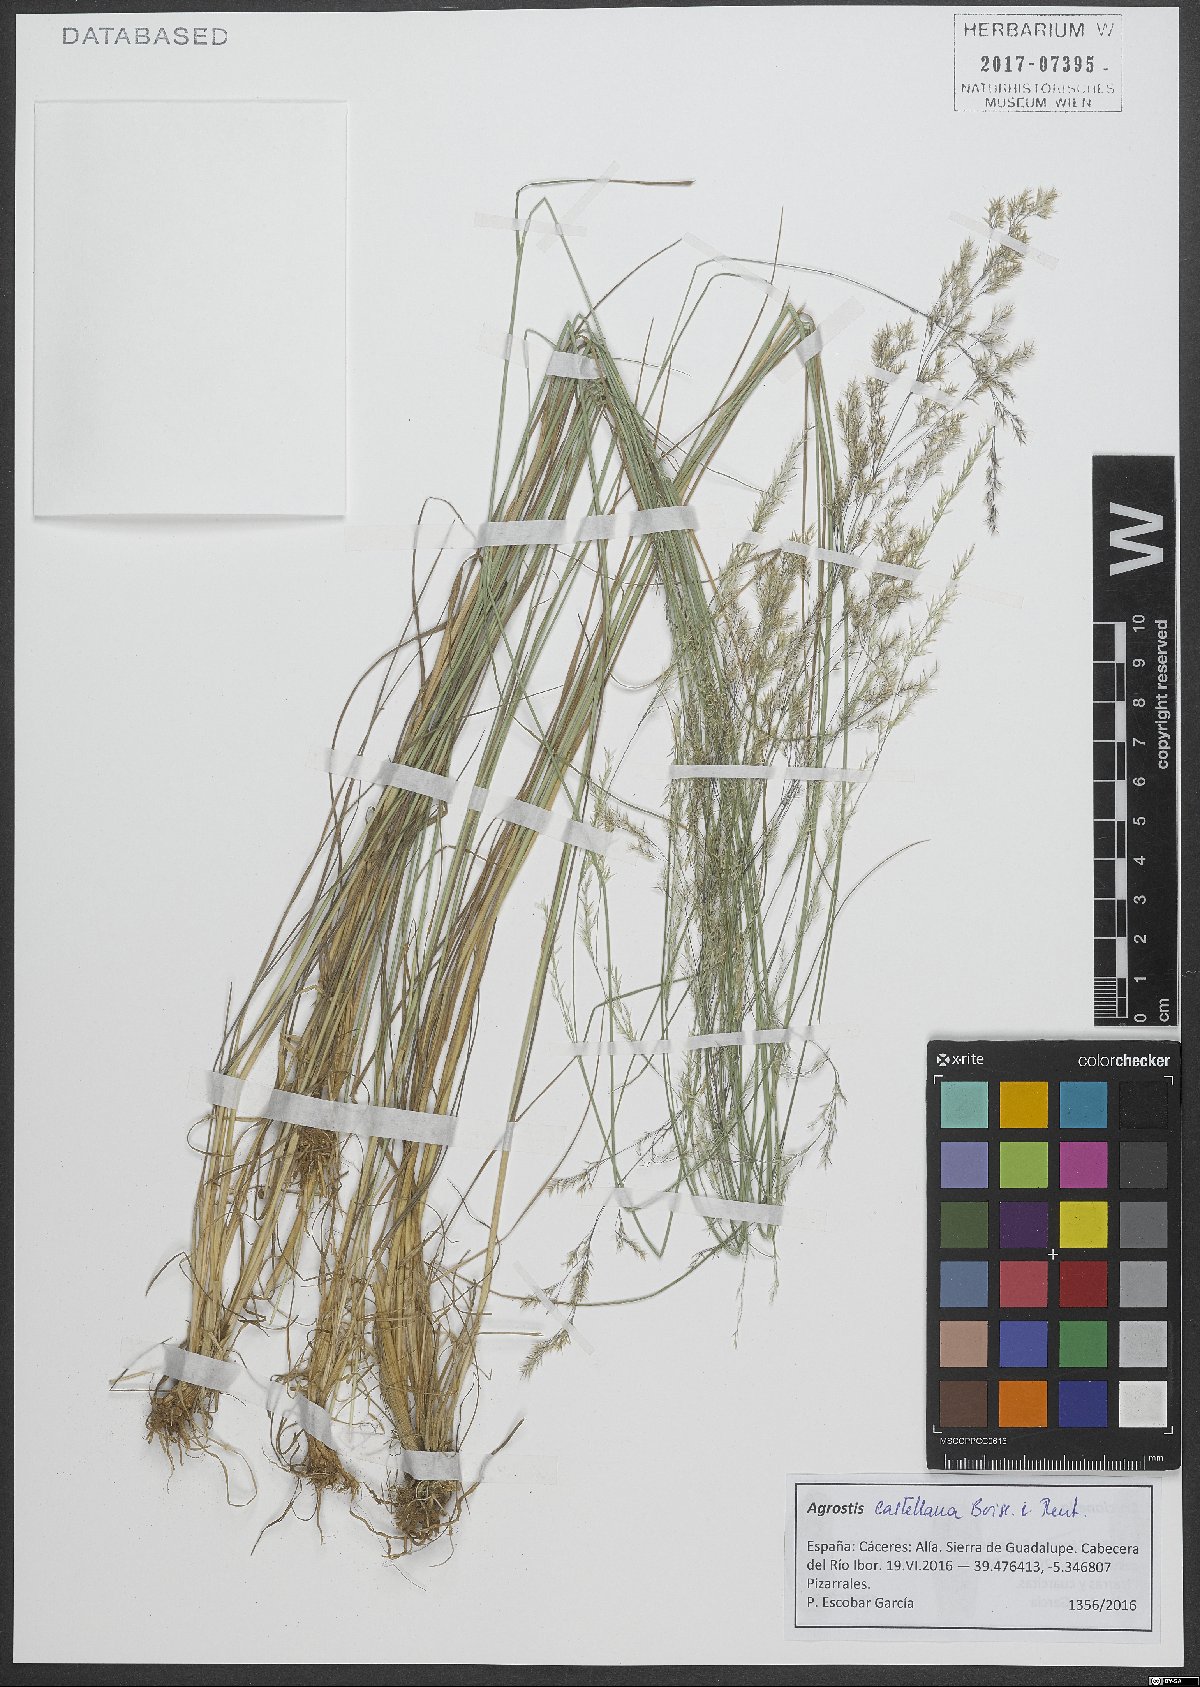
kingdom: Plantae
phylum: Tracheophyta
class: Liliopsida
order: Poales
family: Poaceae
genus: Agrostis
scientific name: Agrostis castellana
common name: Highland bent
